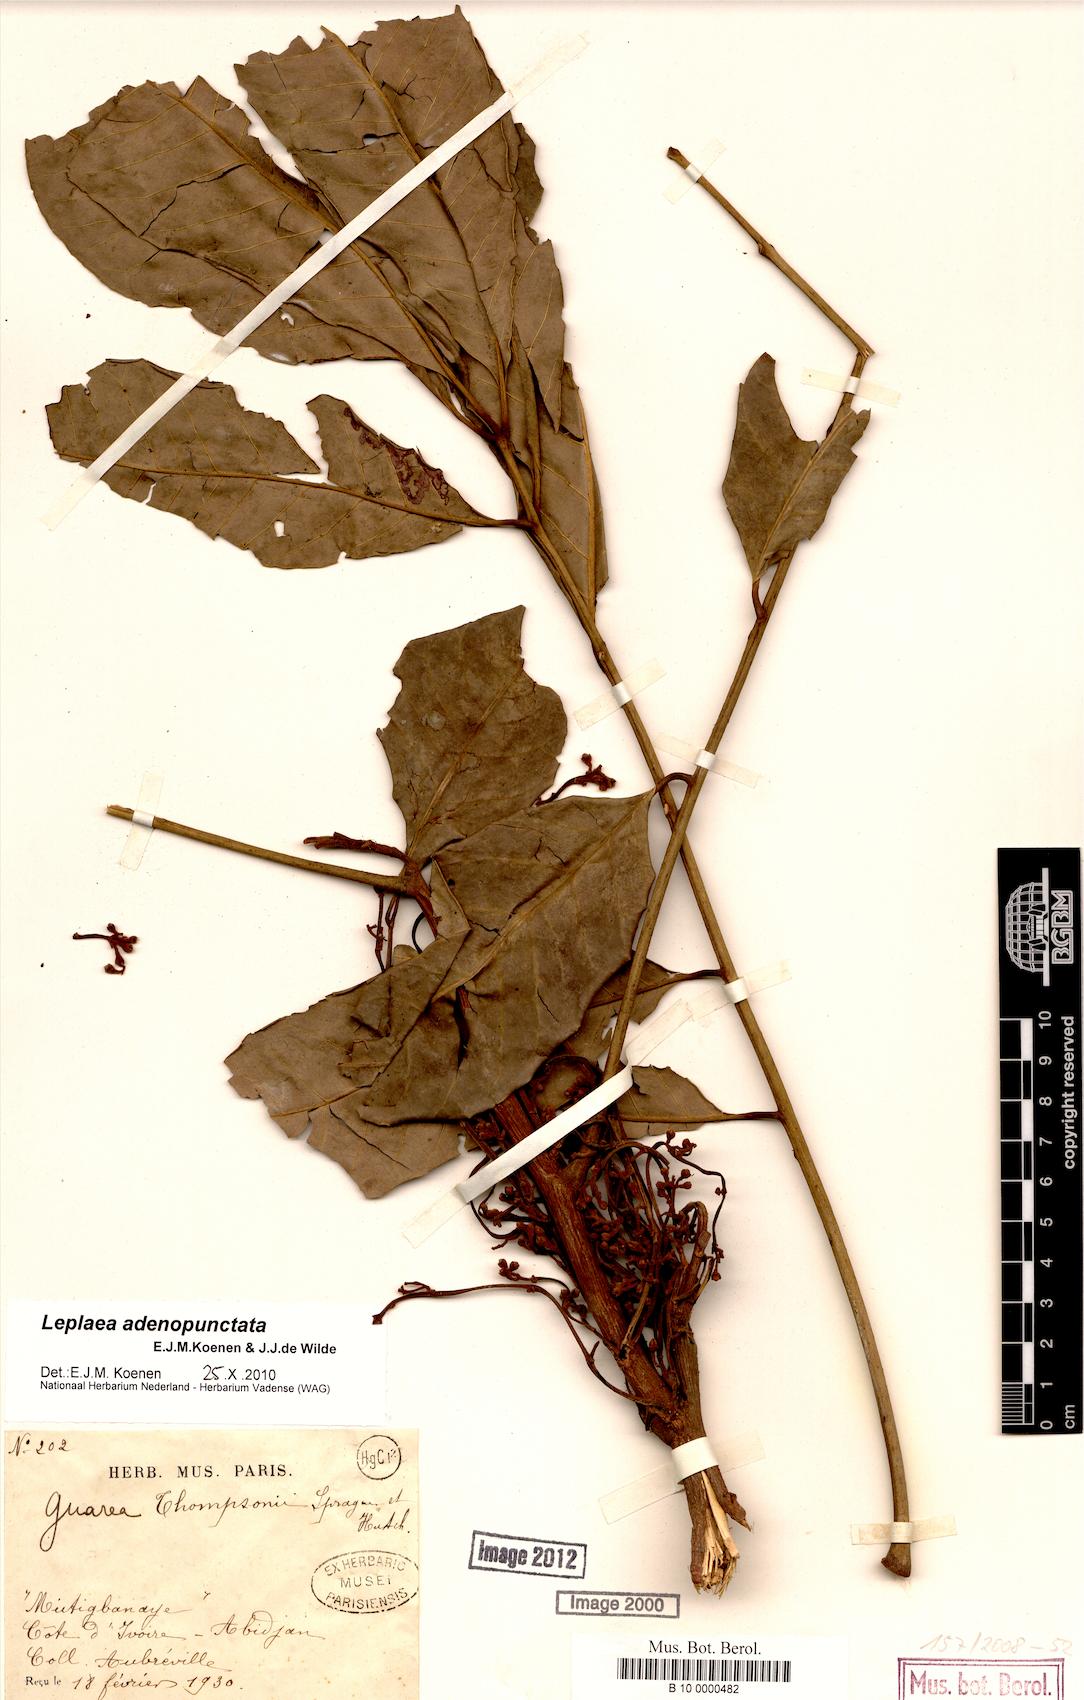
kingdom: Plantae
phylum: Tracheophyta
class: Magnoliopsida
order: Ericales
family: Theaceae
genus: Gordonia
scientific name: Gordonia
